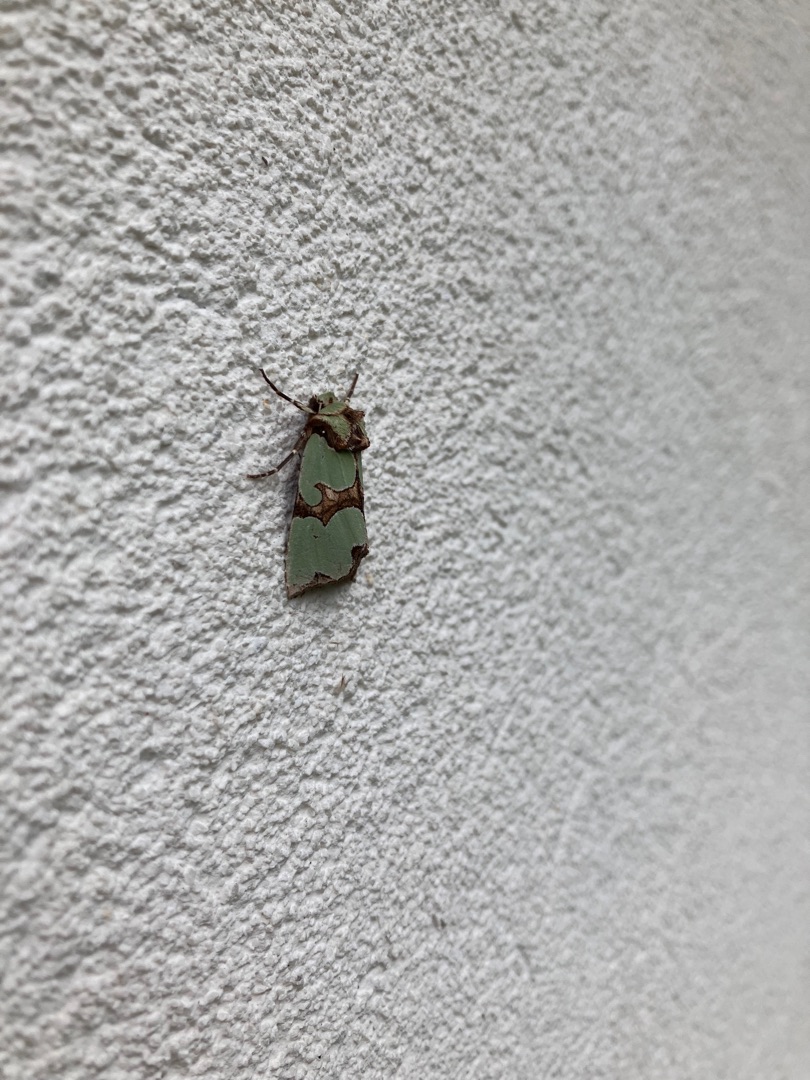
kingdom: Animalia
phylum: Arthropoda
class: Insecta
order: Lepidoptera
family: Noctuidae
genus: Staurophora
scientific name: Staurophora celsia
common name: Grøn pragtugle
